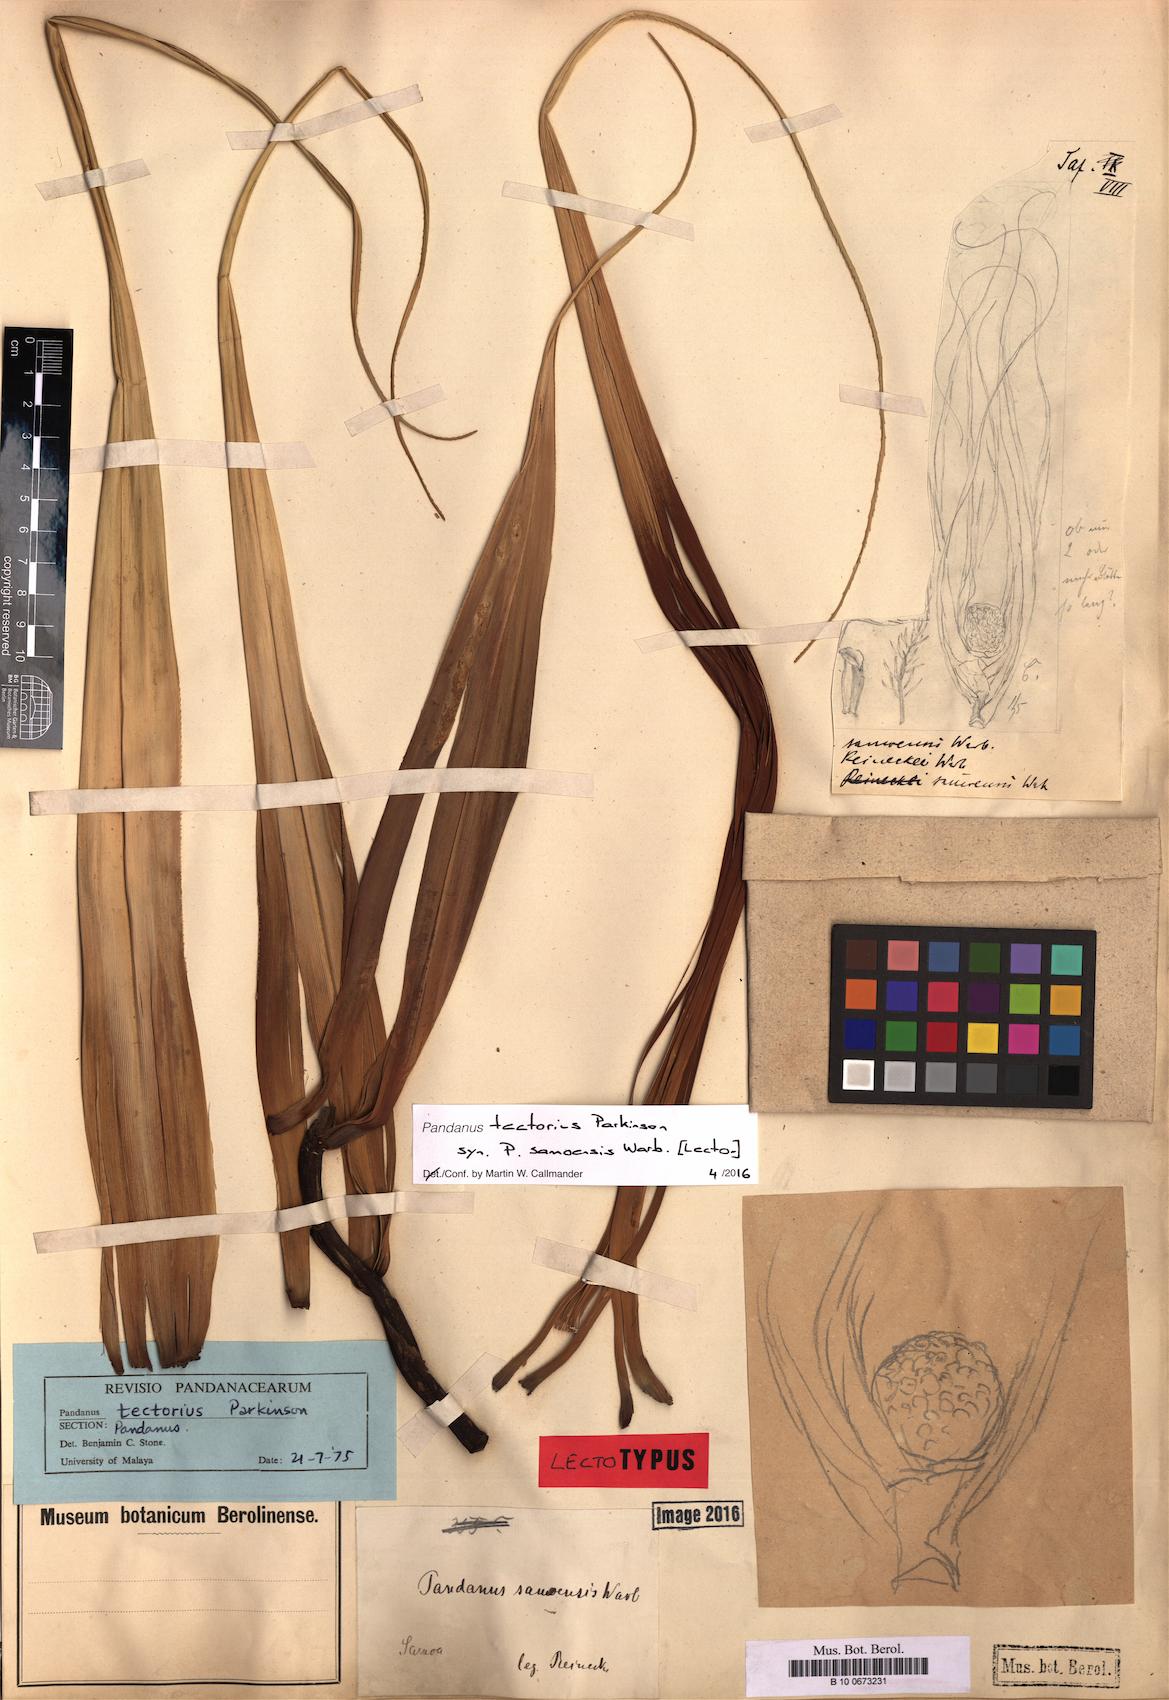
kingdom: Plantae
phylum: Tracheophyta
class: Liliopsida
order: Pandanales
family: Pandanaceae
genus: Pandanus
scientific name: Pandanus tectorius
